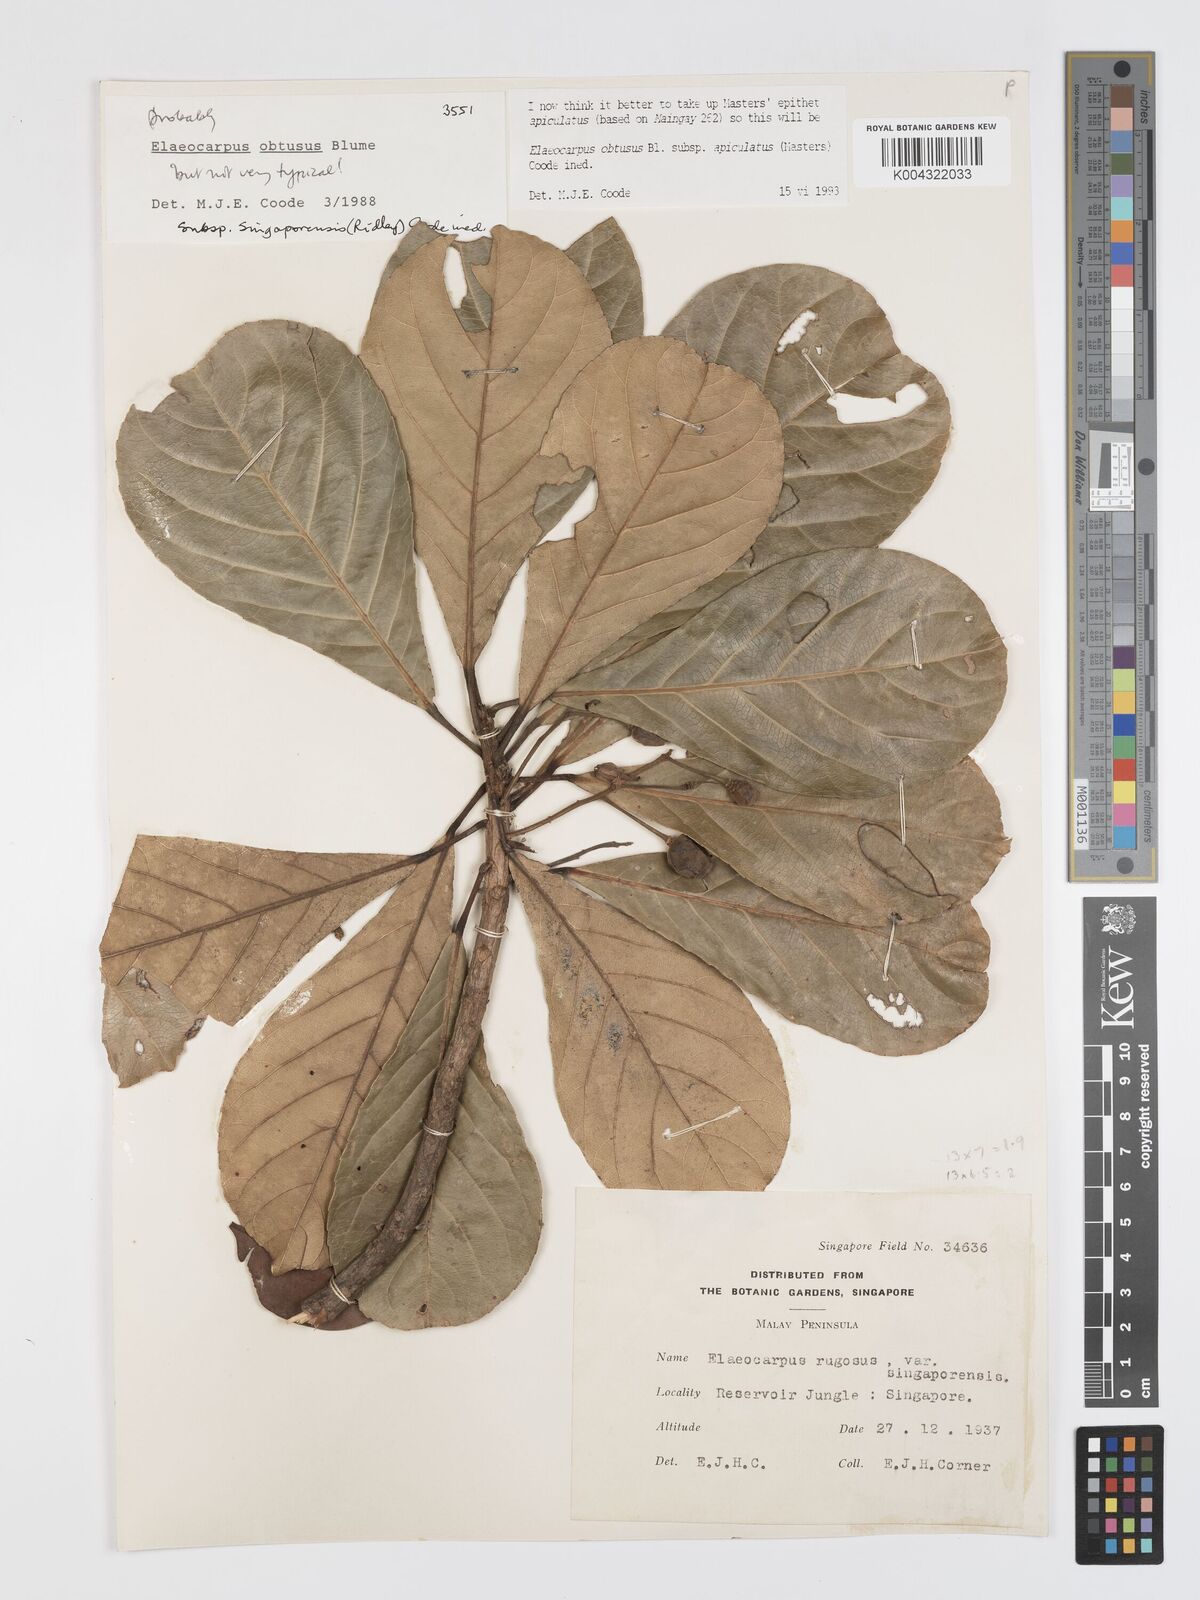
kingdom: Plantae
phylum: Tracheophyta
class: Magnoliopsida
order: Oxalidales
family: Elaeocarpaceae
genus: Elaeocarpus
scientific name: Elaeocarpus obtusus
